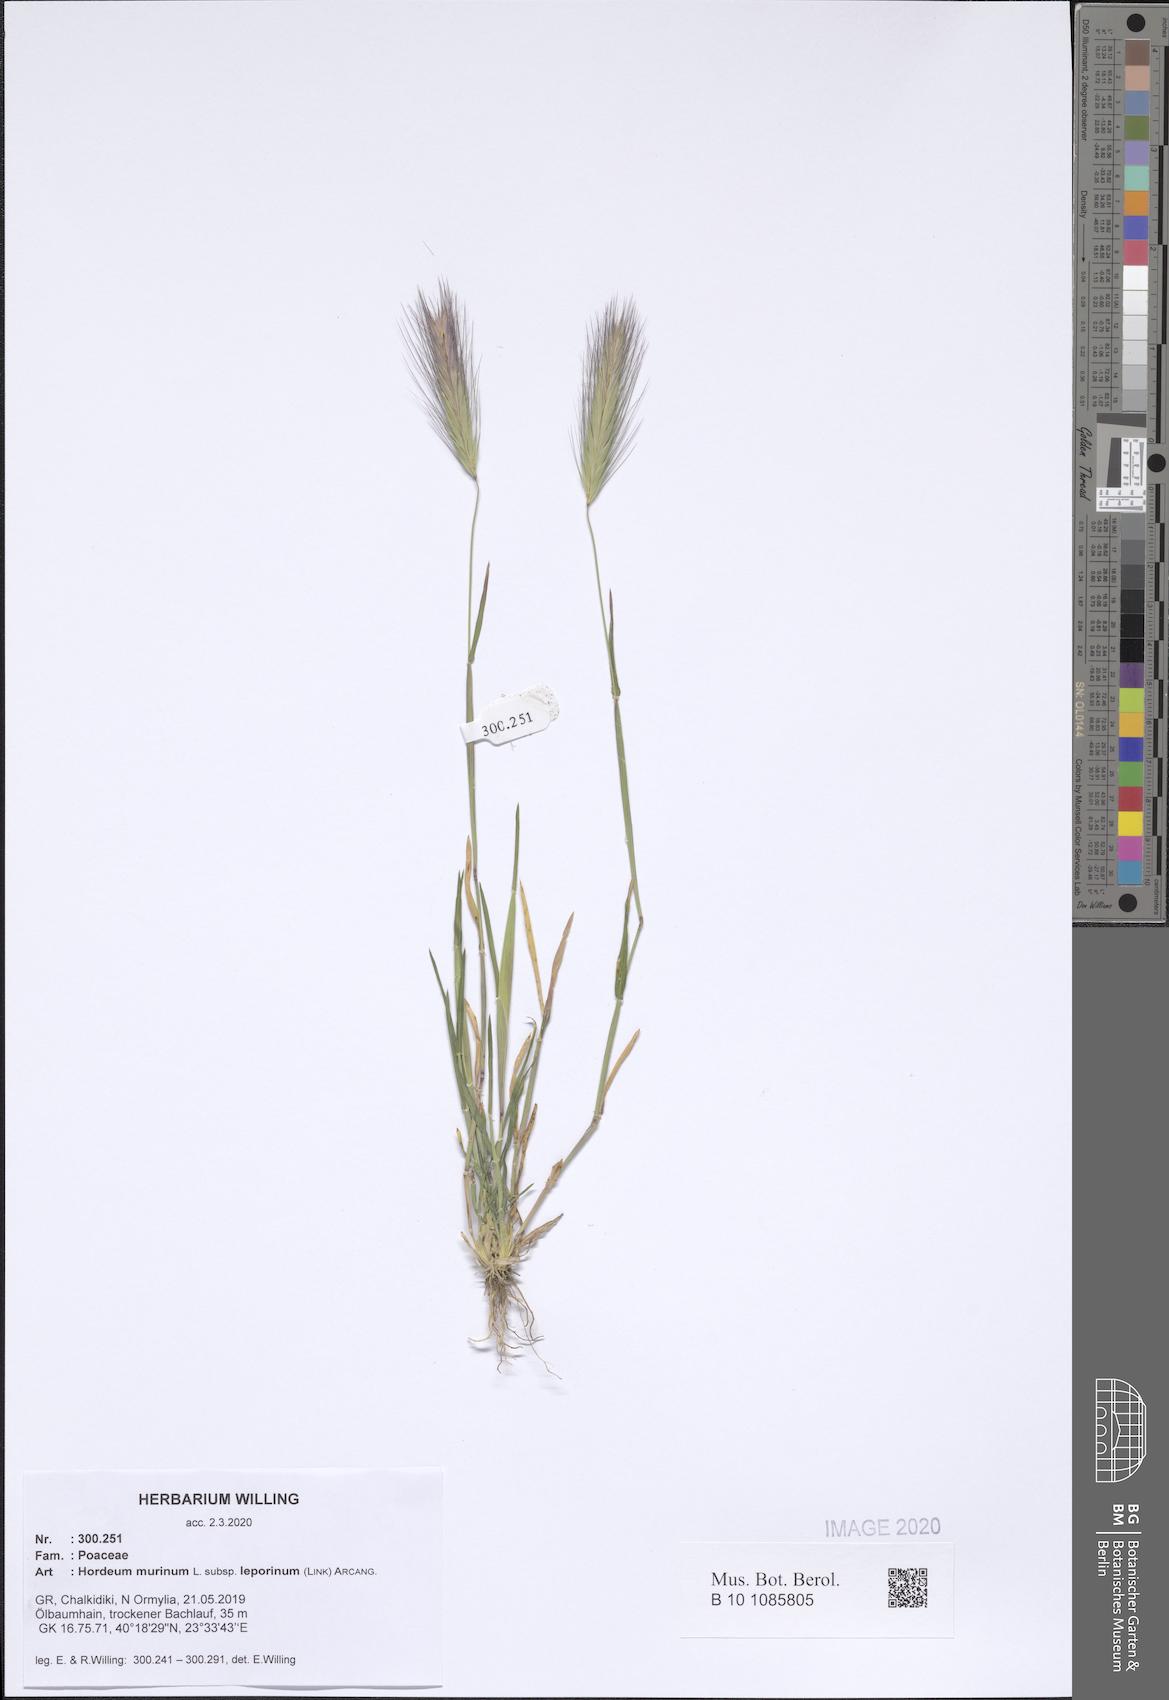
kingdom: Plantae
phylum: Tracheophyta
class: Liliopsida
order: Poales
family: Poaceae
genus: Hordeum
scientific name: Hordeum murinum
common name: Wall barley
